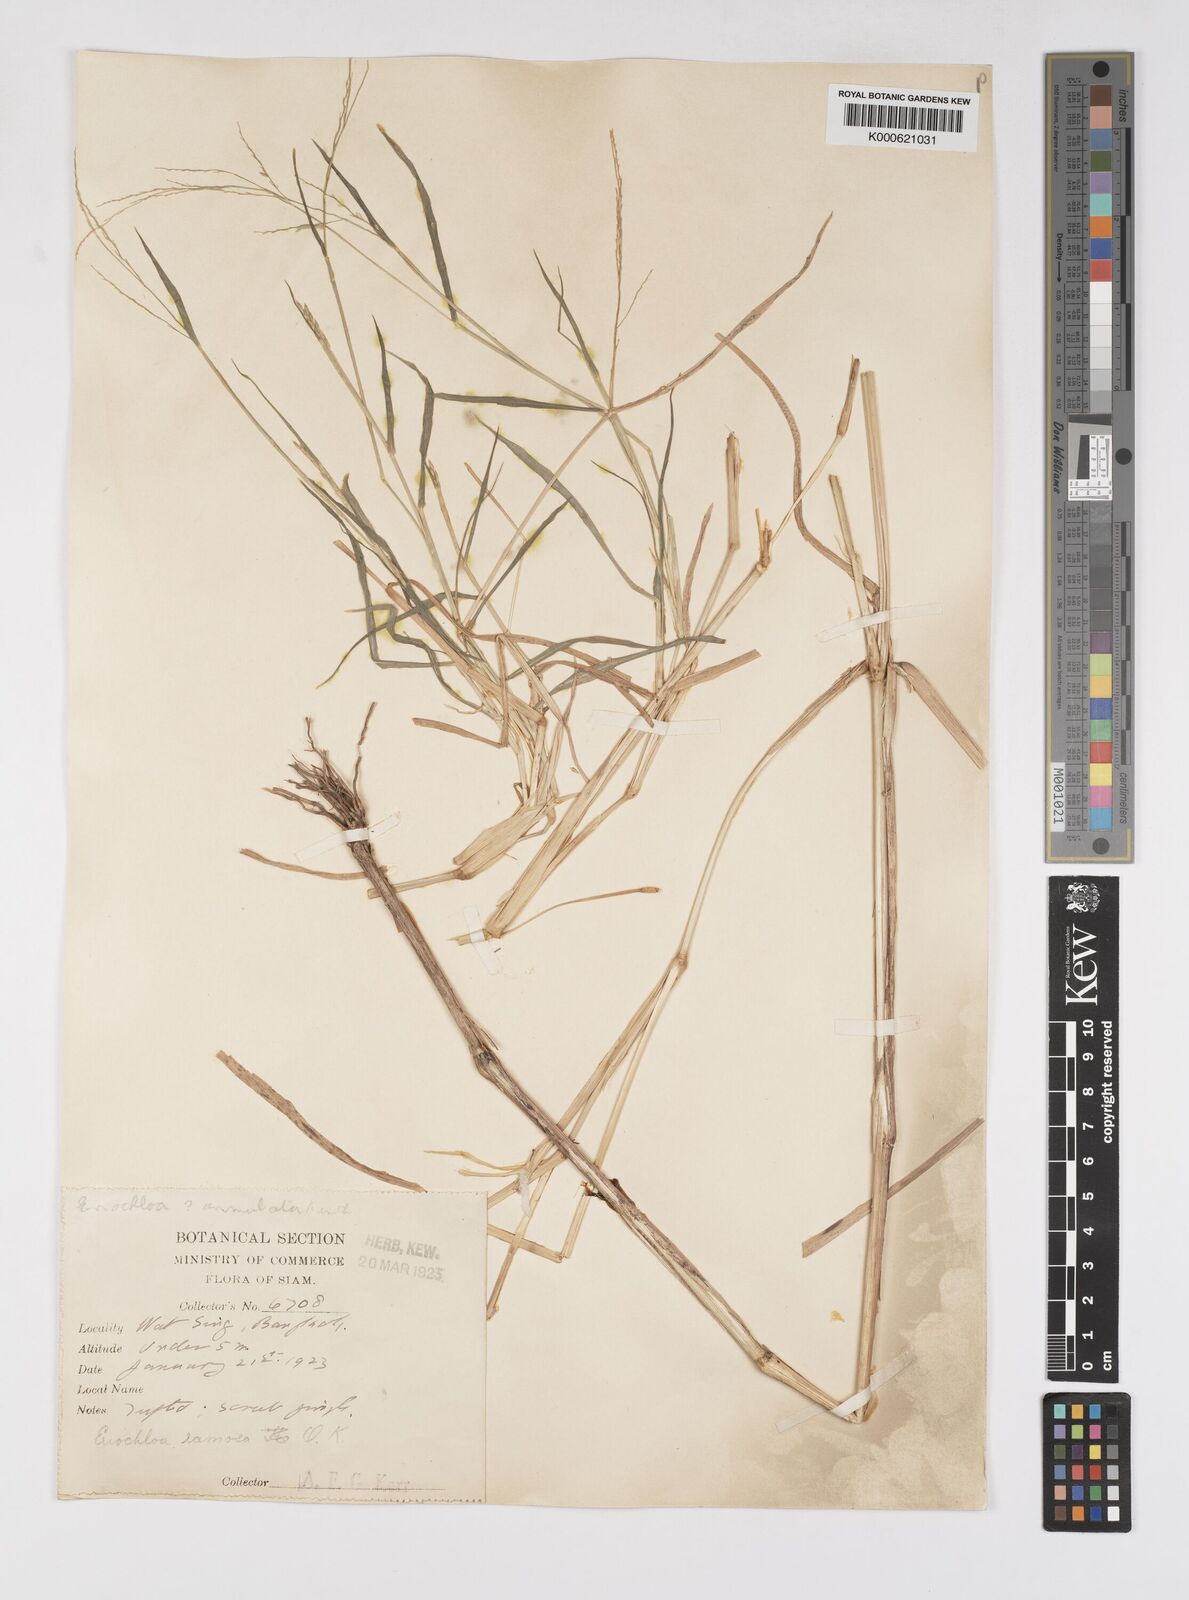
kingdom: Plantae
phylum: Tracheophyta
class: Liliopsida
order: Poales
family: Poaceae
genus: Eriochloa
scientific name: Eriochloa procera
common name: Spring grass
